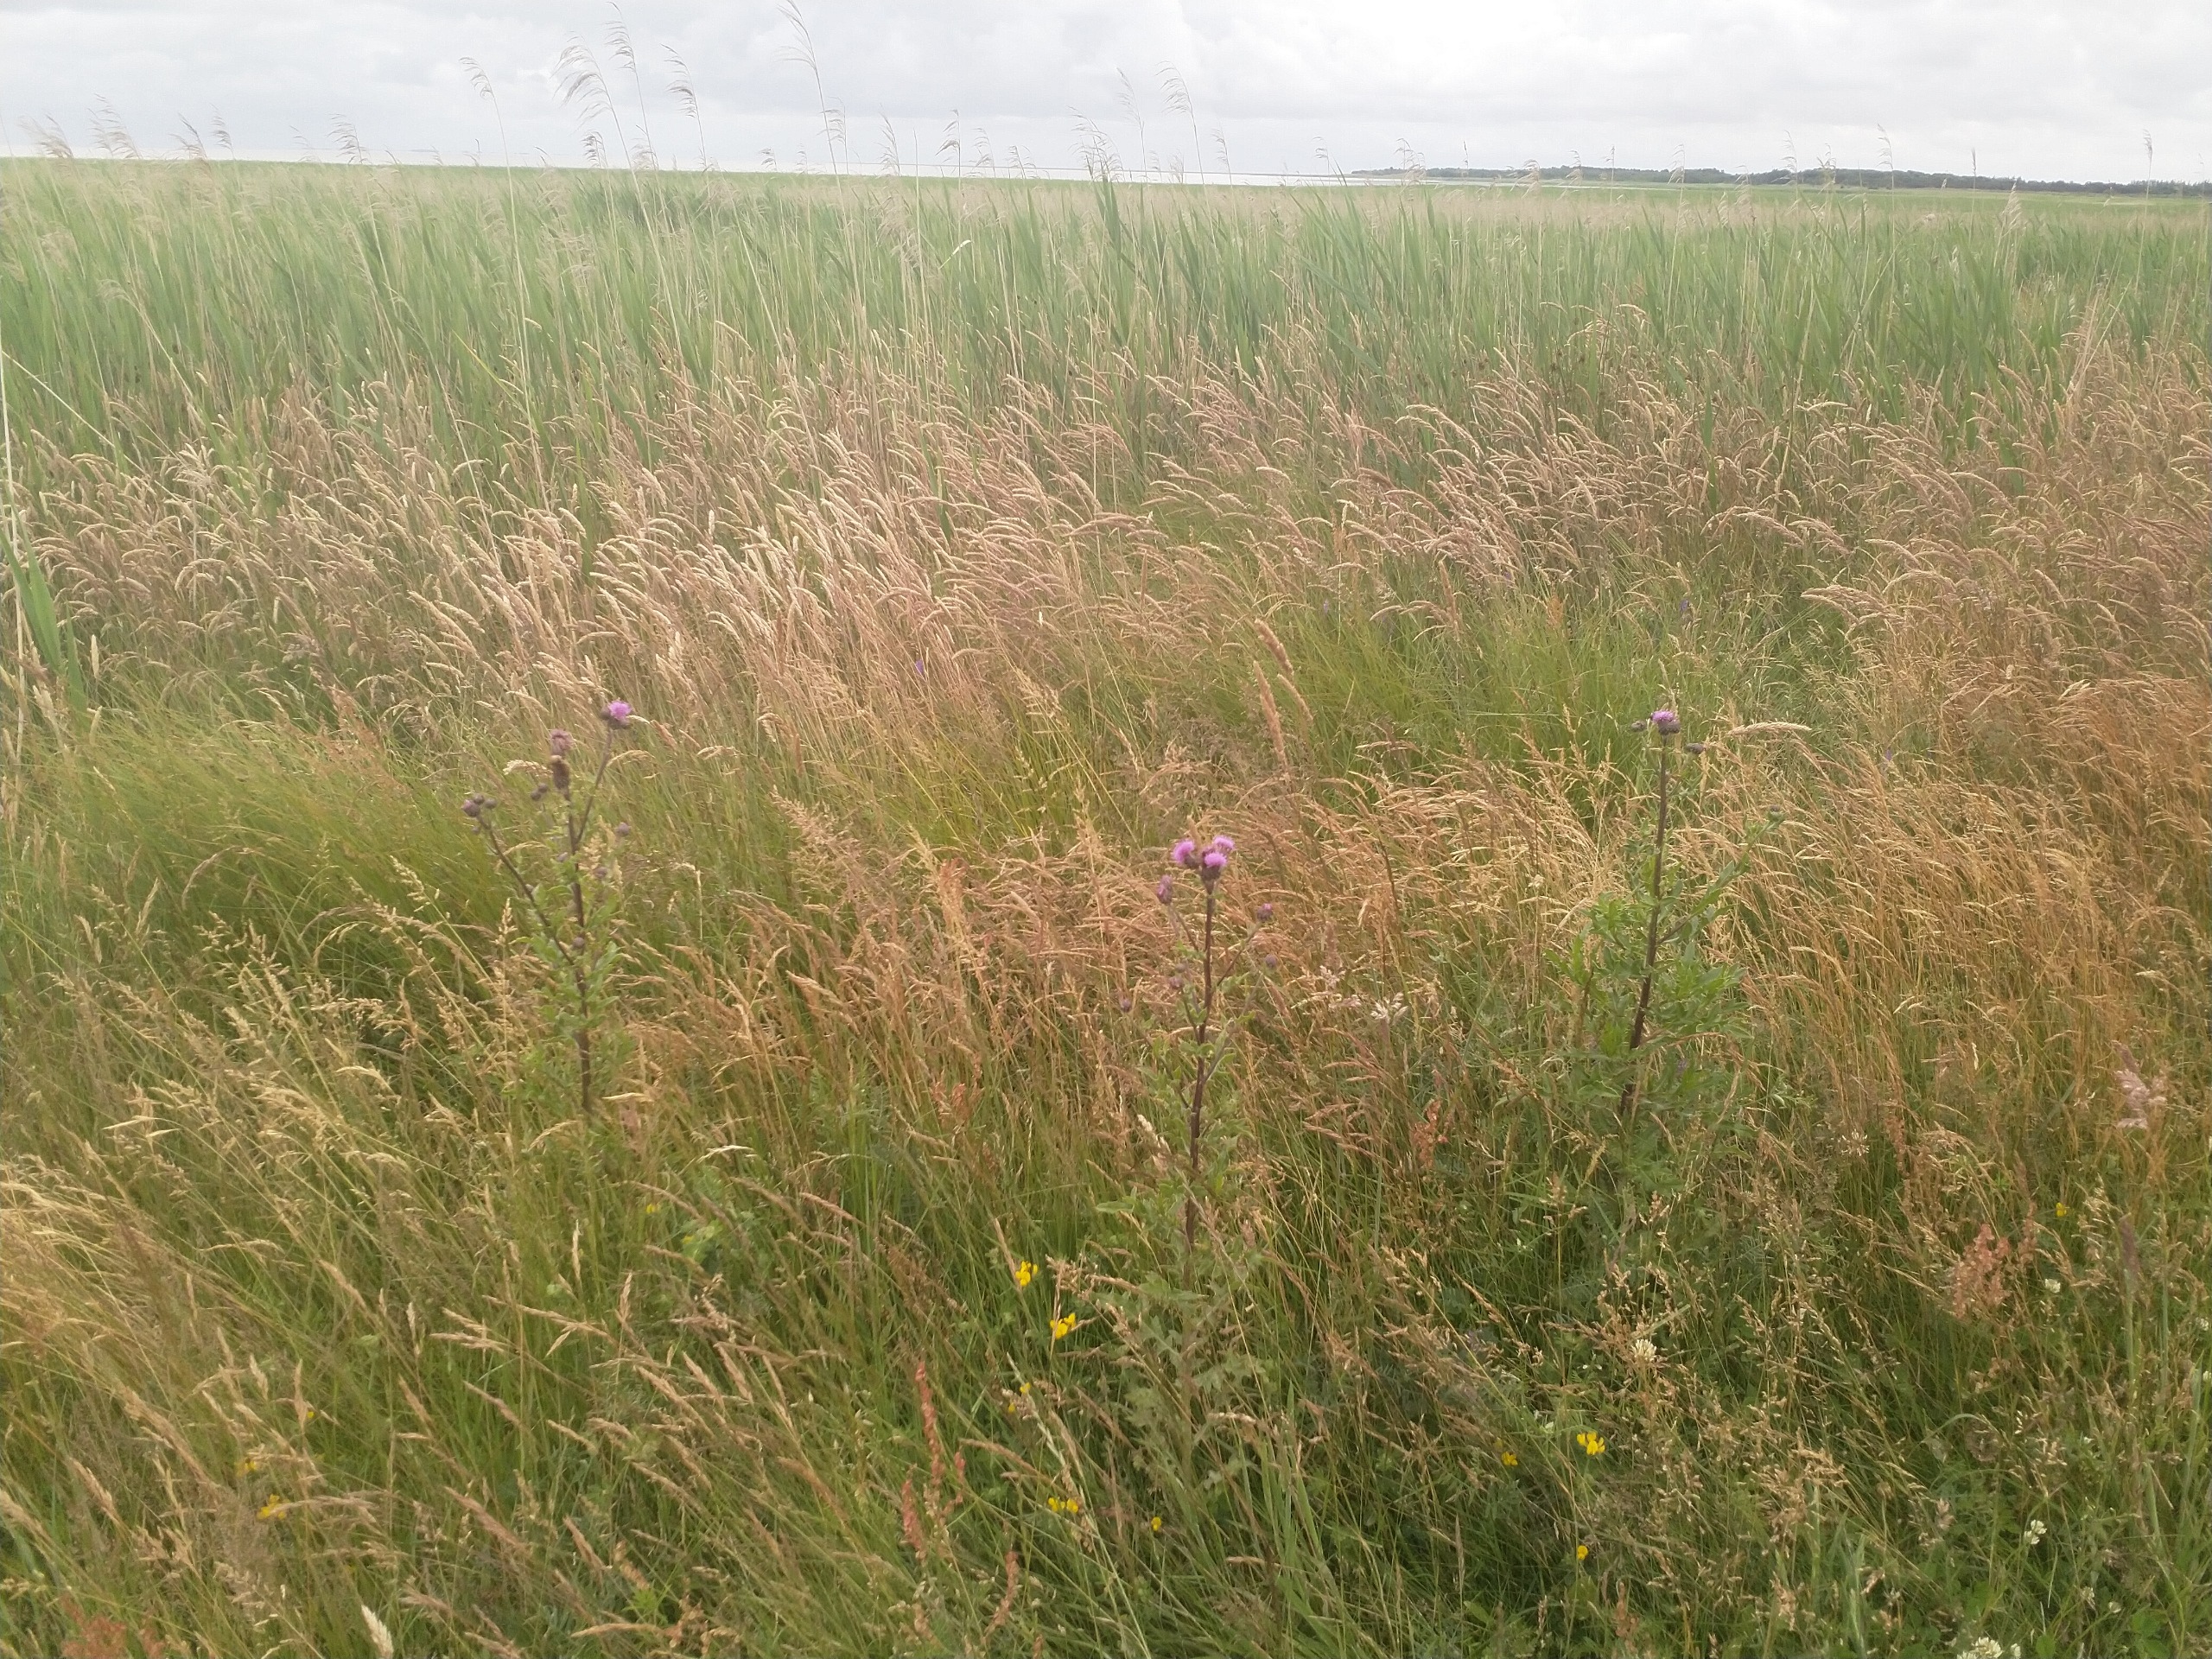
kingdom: Plantae
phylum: Tracheophyta
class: Magnoliopsida
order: Asterales
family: Asteraceae
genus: Cirsium
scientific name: Cirsium arvense
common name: Ager-tidsel
